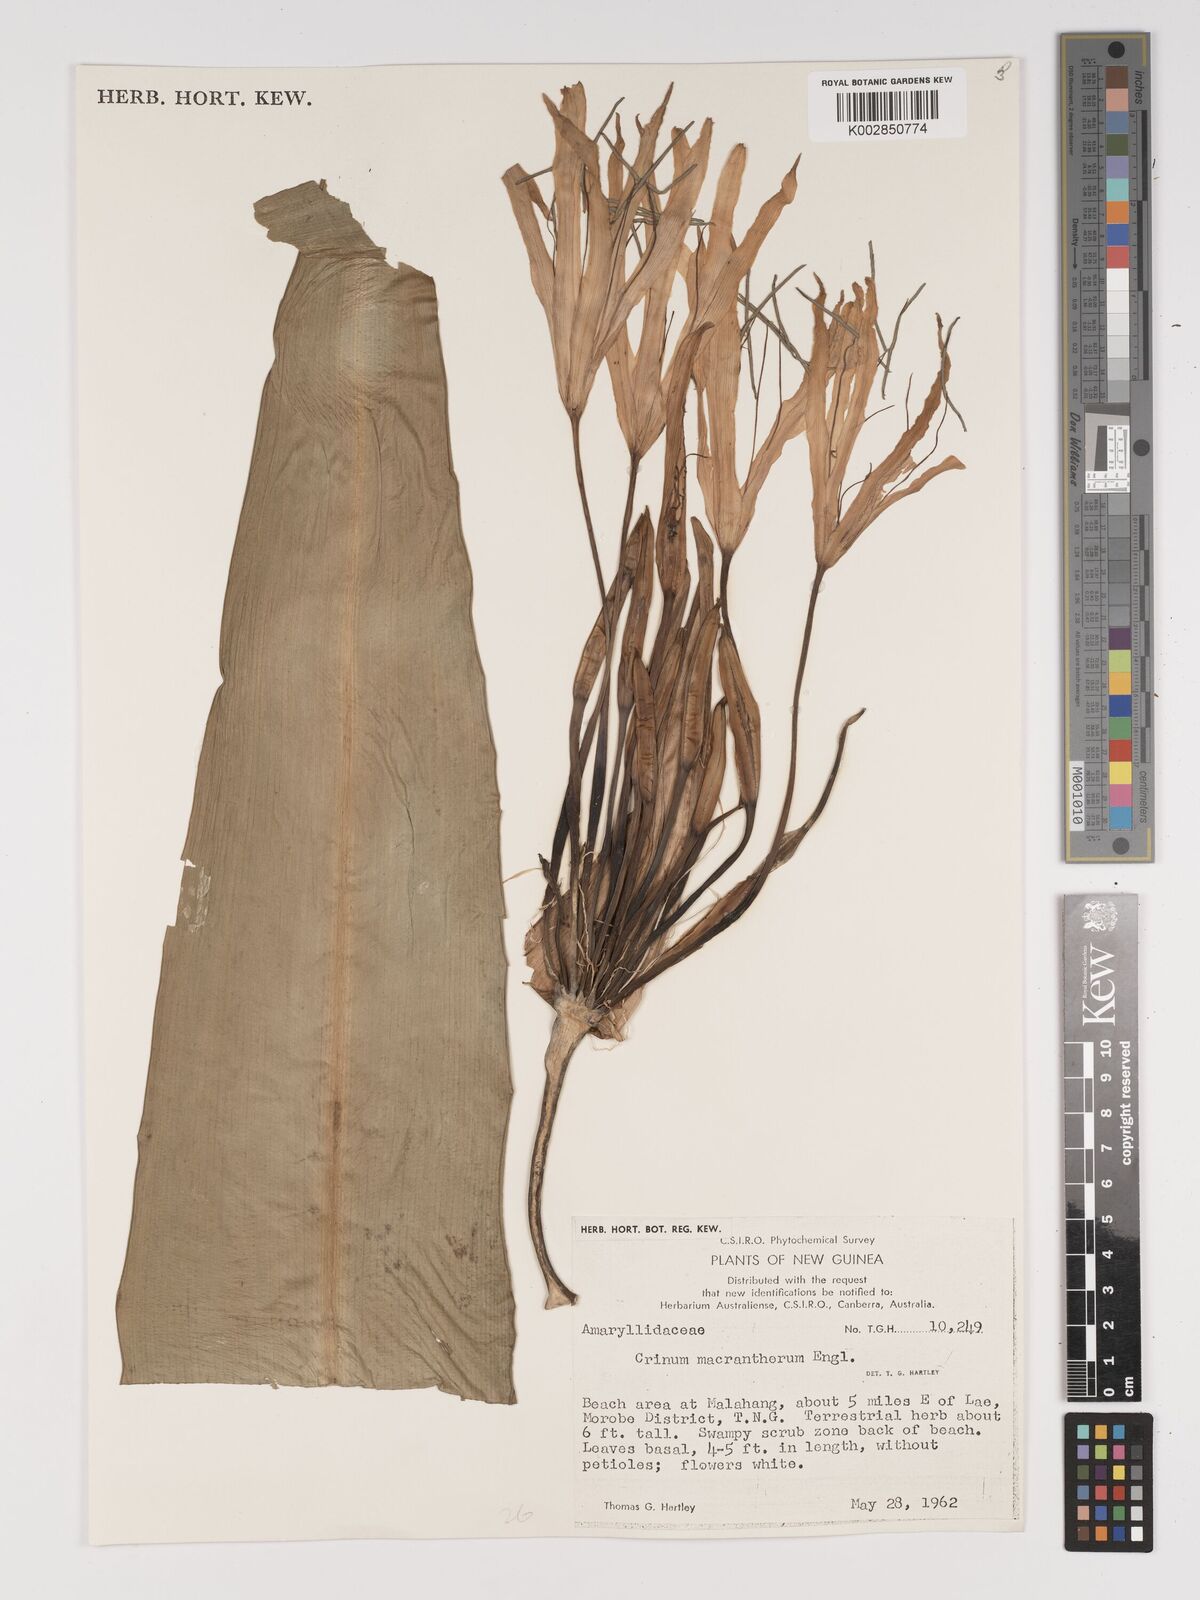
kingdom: Plantae
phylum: Tracheophyta
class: Liliopsida
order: Asparagales
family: Amaryllidaceae
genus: Crinum
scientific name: Crinum asiaticum
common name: Poisonbulb
